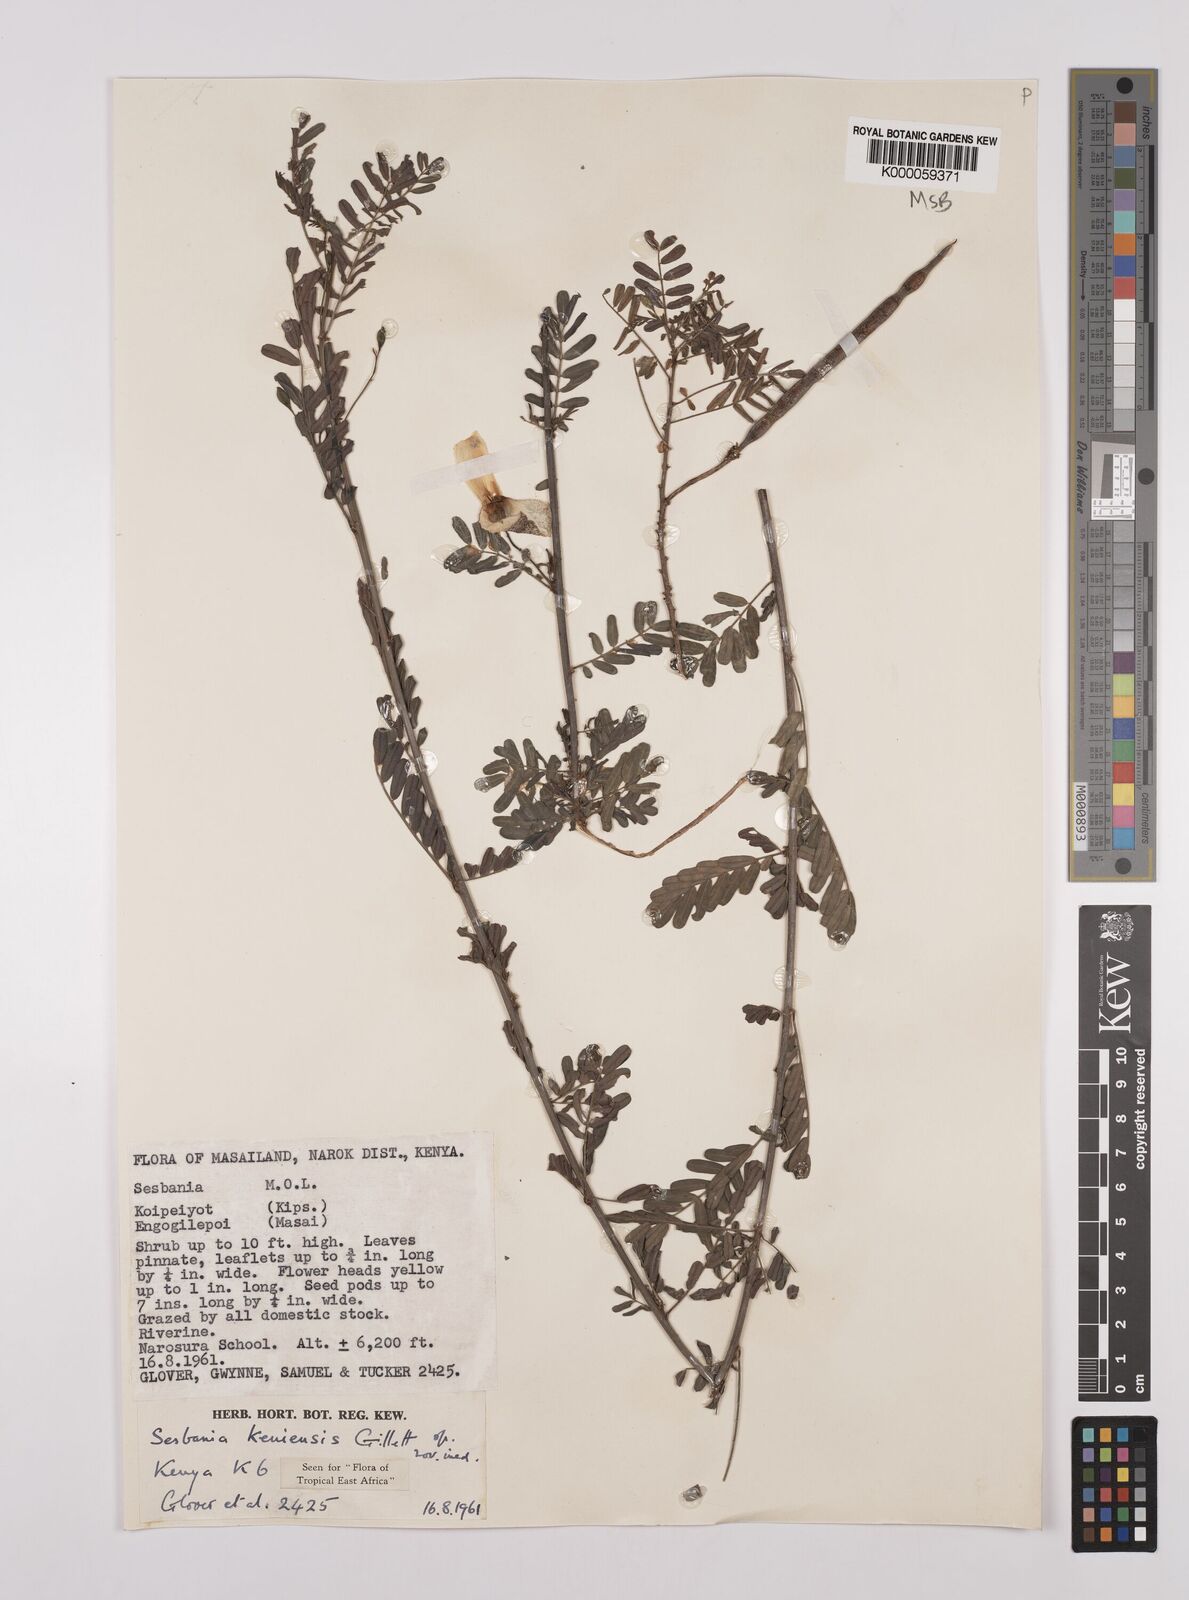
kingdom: Plantae
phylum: Tracheophyta
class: Magnoliopsida
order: Fabales
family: Fabaceae
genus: Sesbania
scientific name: Sesbania keniensis
